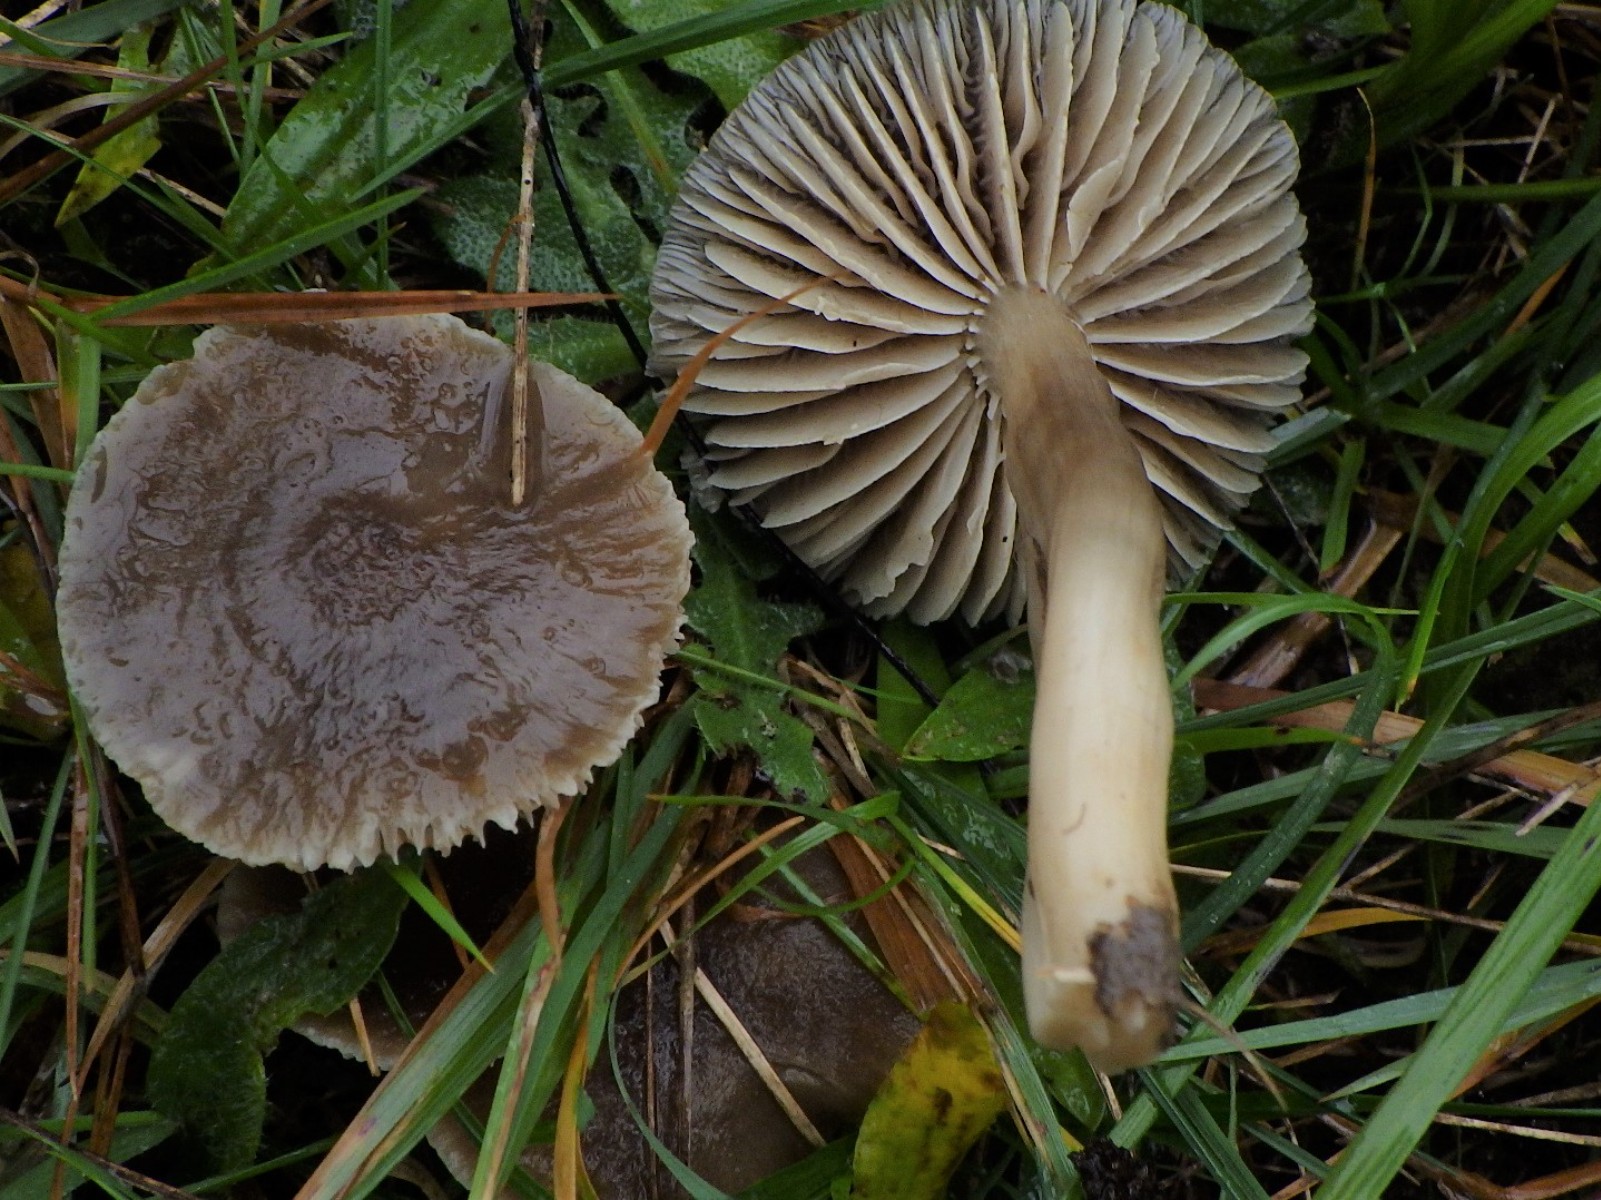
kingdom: Fungi
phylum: Basidiomycota
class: Agaricomycetes
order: Agaricales
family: Hygrophoraceae
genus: Neohygrocybe
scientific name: Neohygrocybe nitrata
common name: stinkende vokshat
